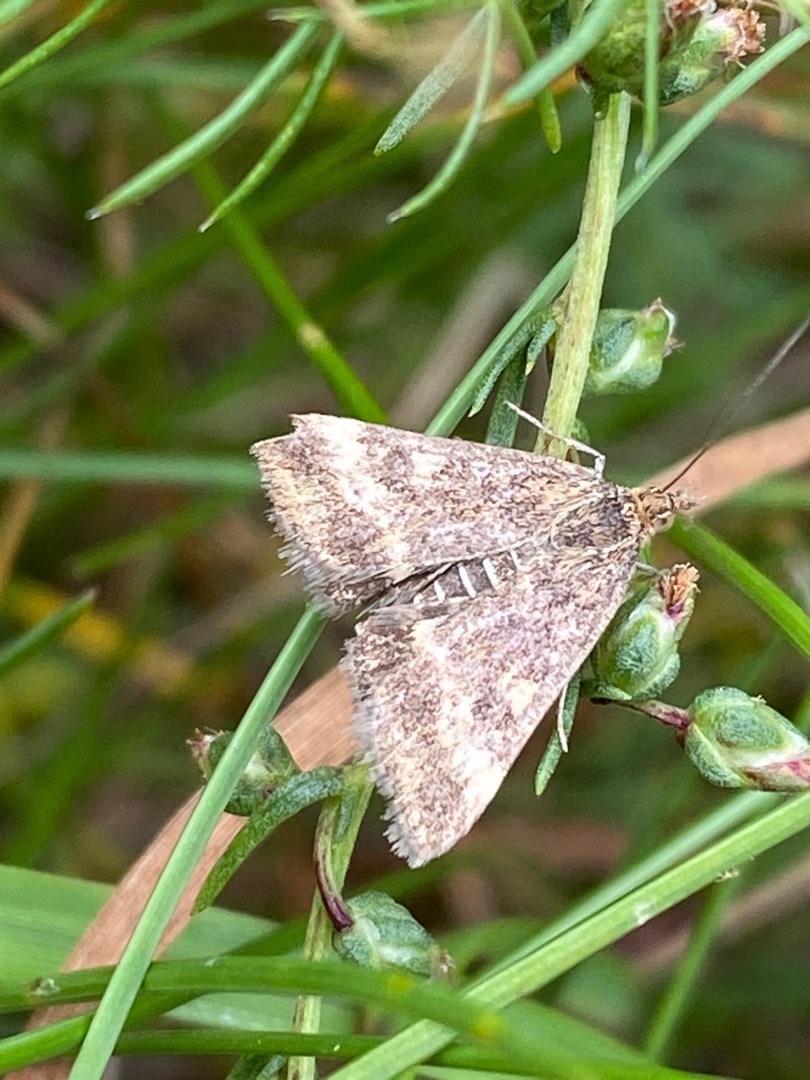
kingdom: Animalia
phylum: Arthropoda
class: Insecta
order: Lepidoptera
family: Crambidae
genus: Pyrausta
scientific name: Pyrausta despicata
